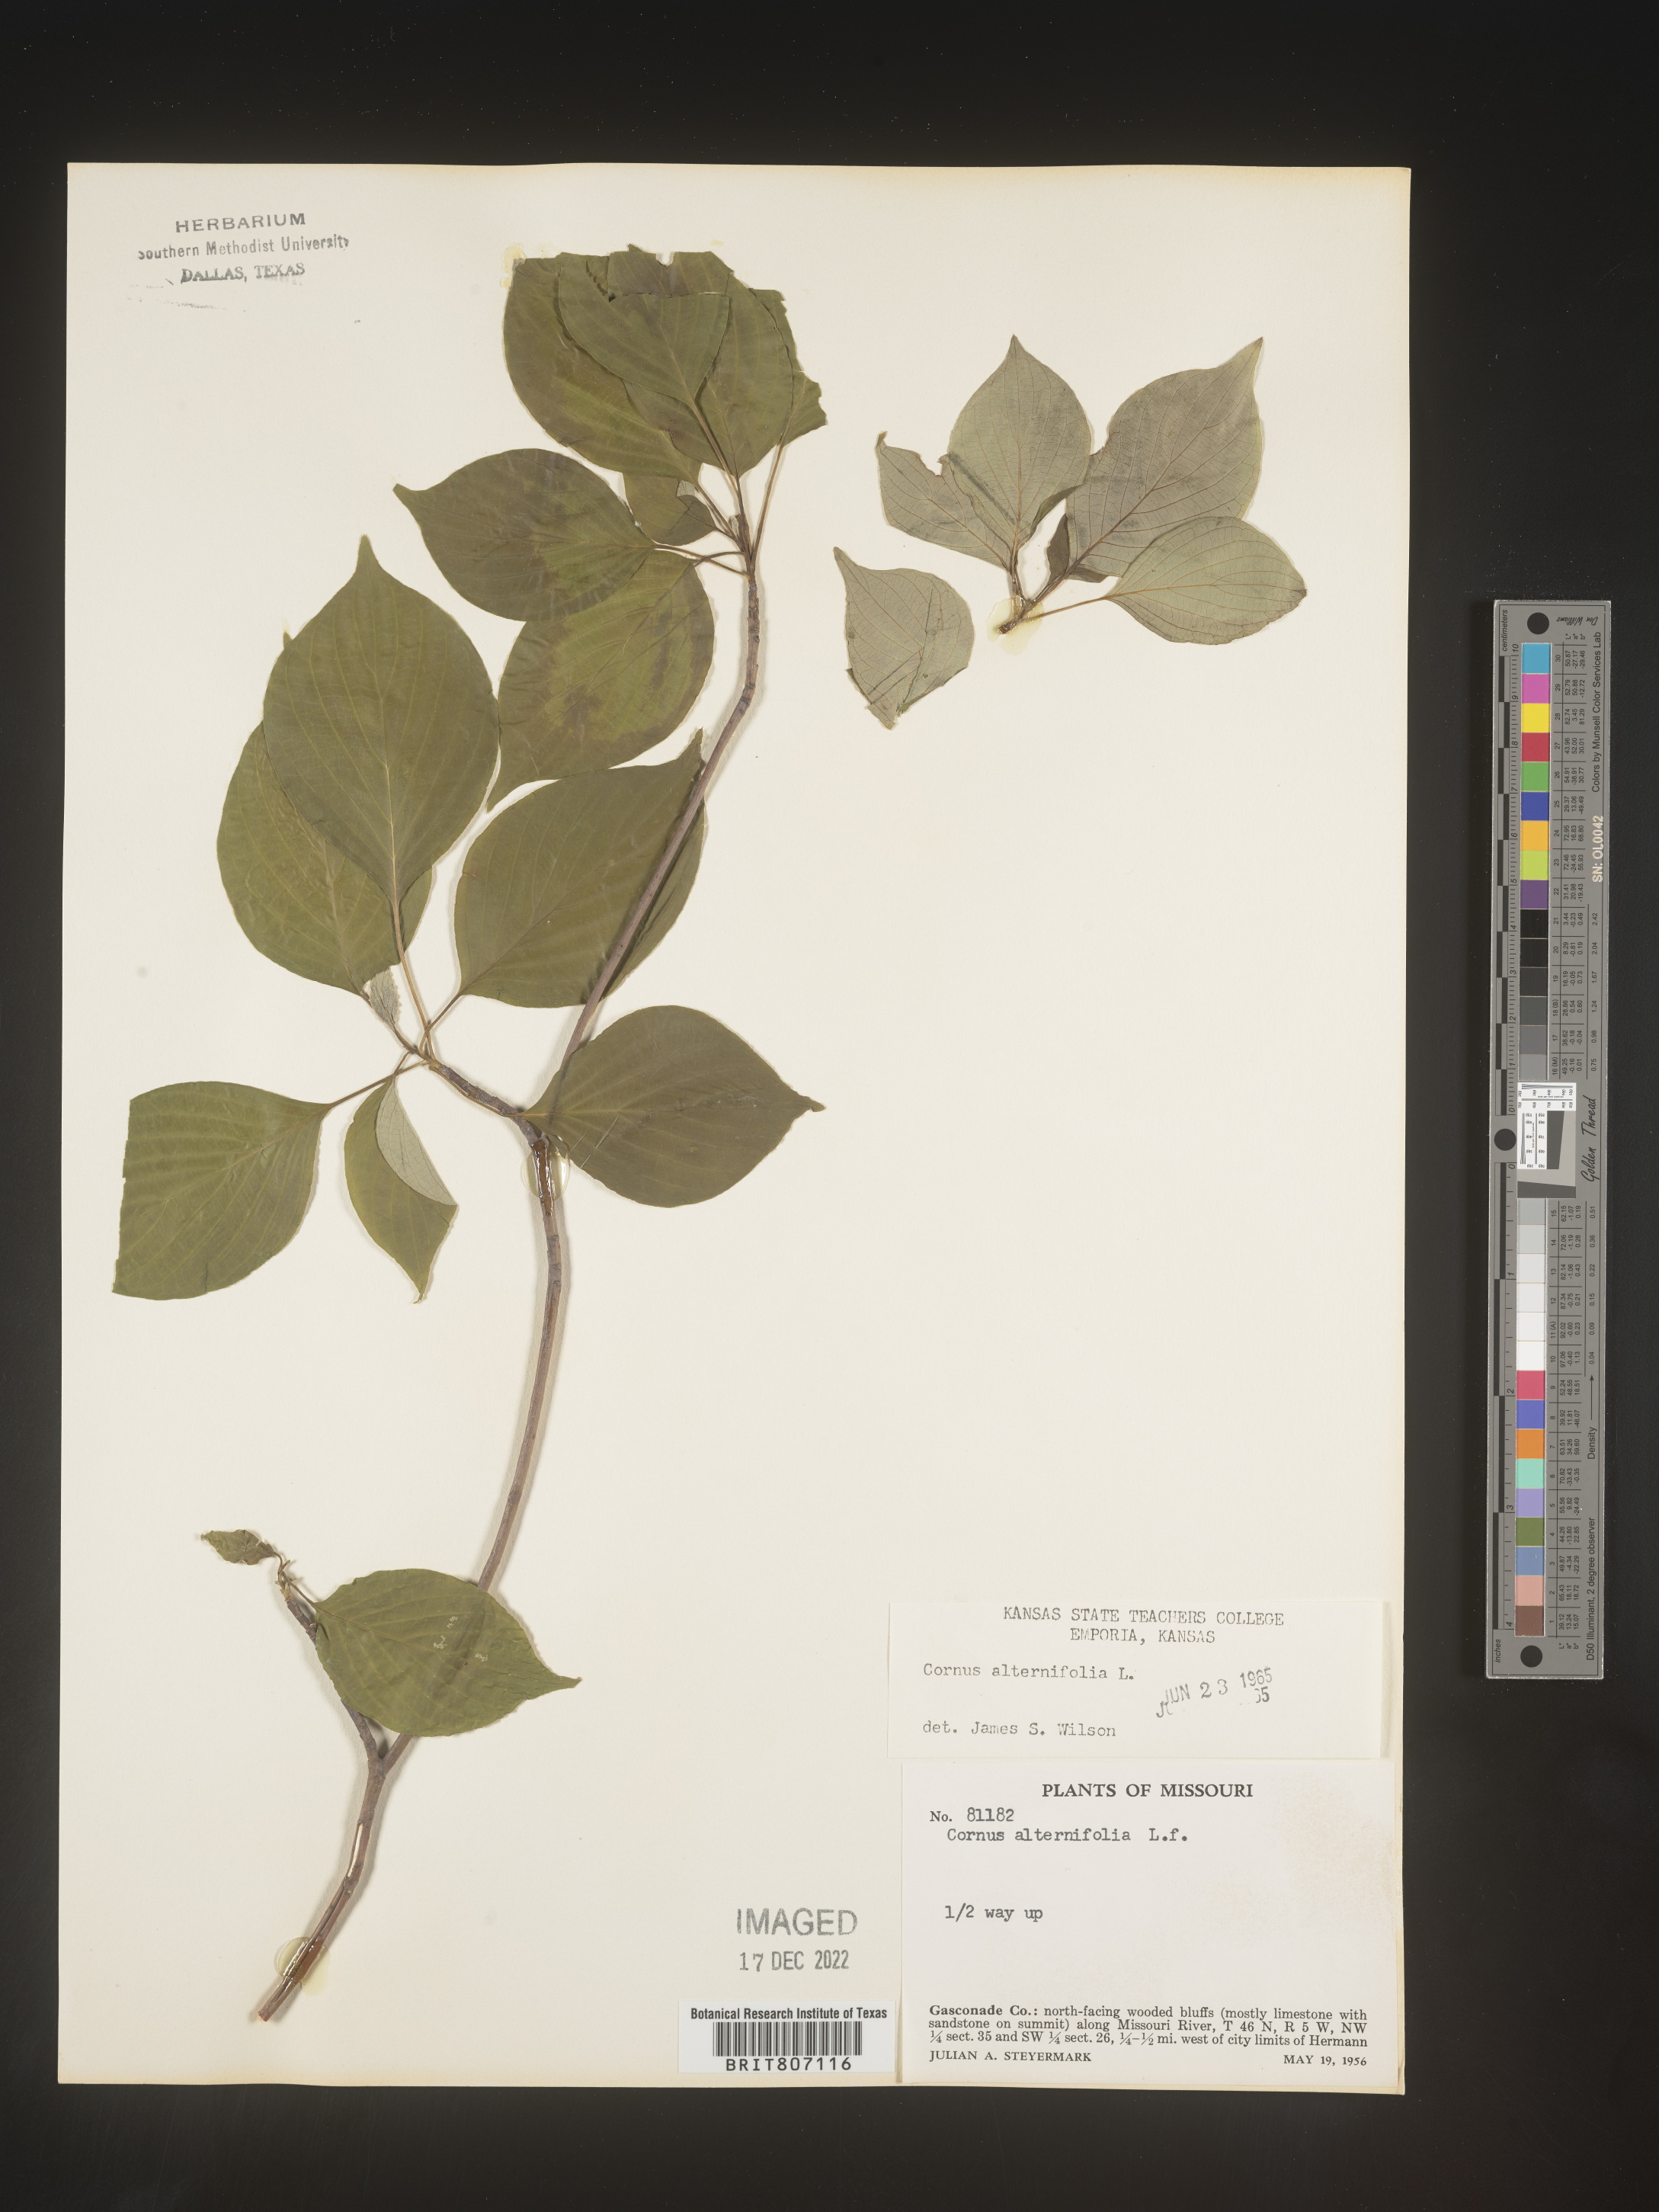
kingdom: Plantae
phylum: Tracheophyta
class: Magnoliopsida
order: Cornales
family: Cornaceae
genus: Cornus
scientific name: Cornus alternifolia
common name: Pagoda dogwood
